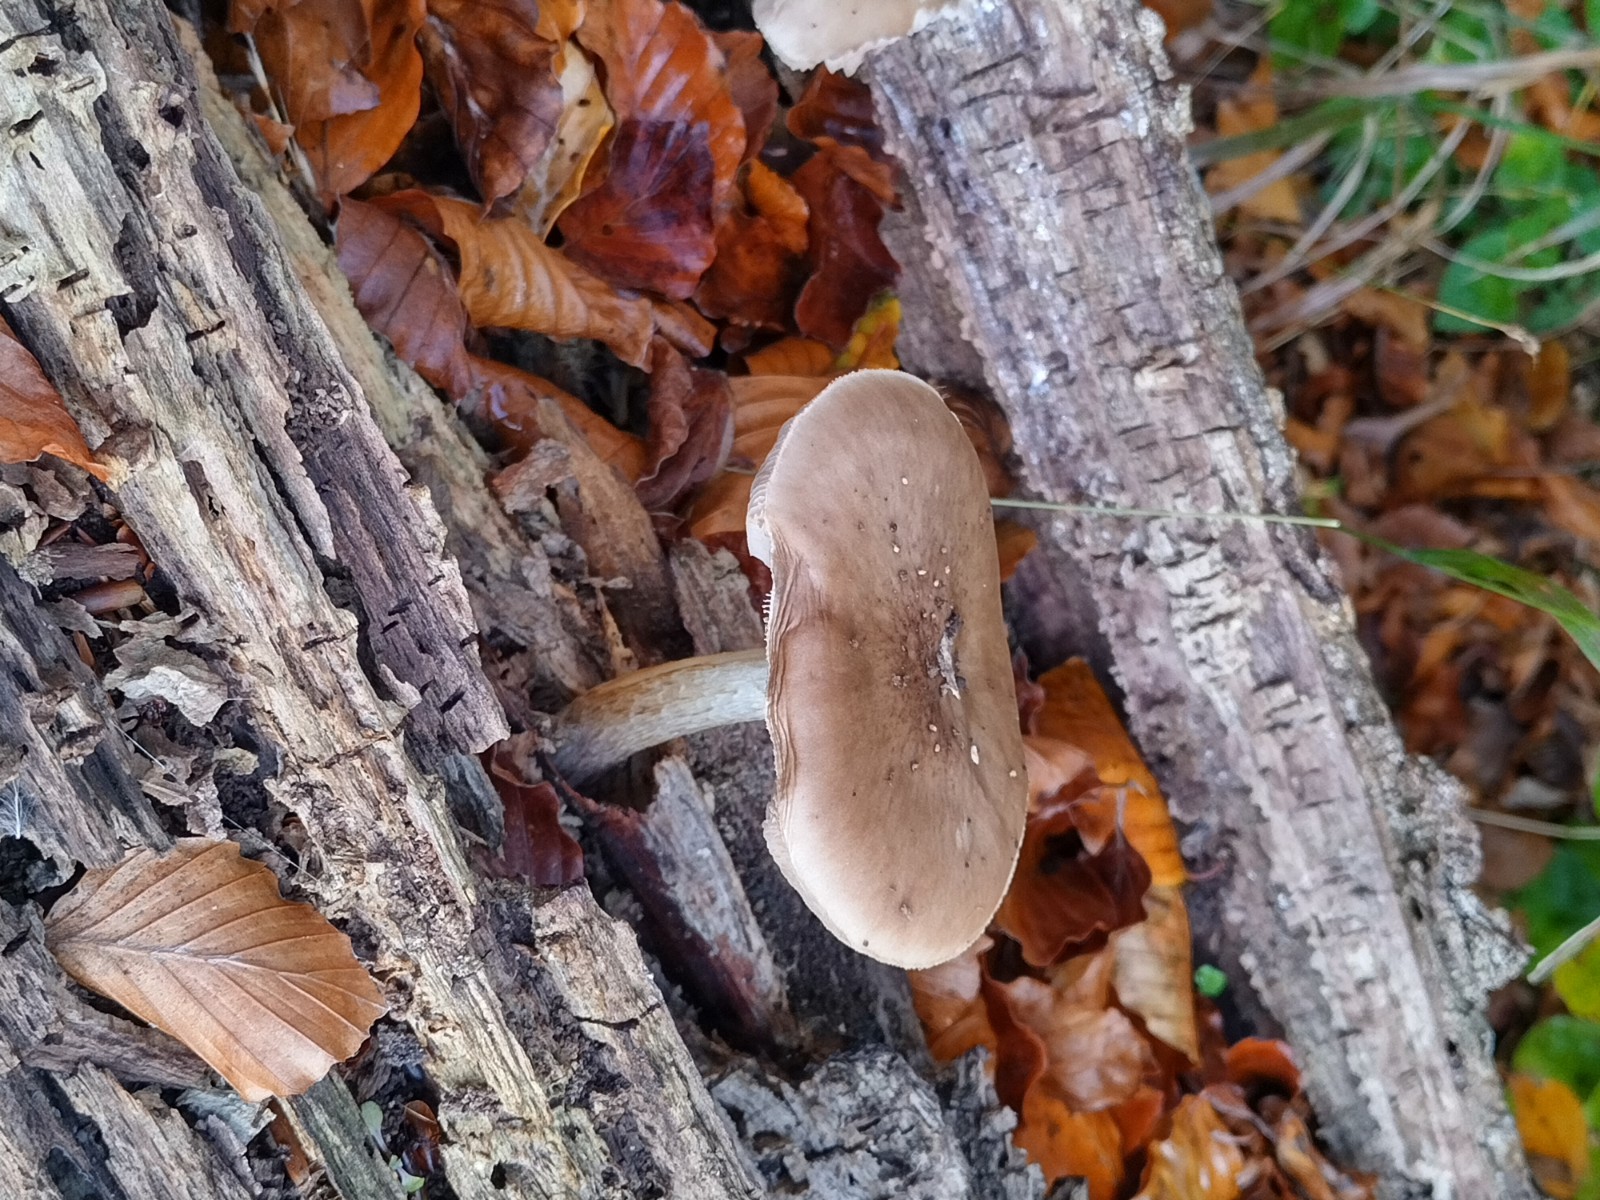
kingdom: Fungi
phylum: Basidiomycota
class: Agaricomycetes
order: Agaricales
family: Pluteaceae
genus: Pluteus
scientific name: Pluteus salicinus
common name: stiv skærmhat
